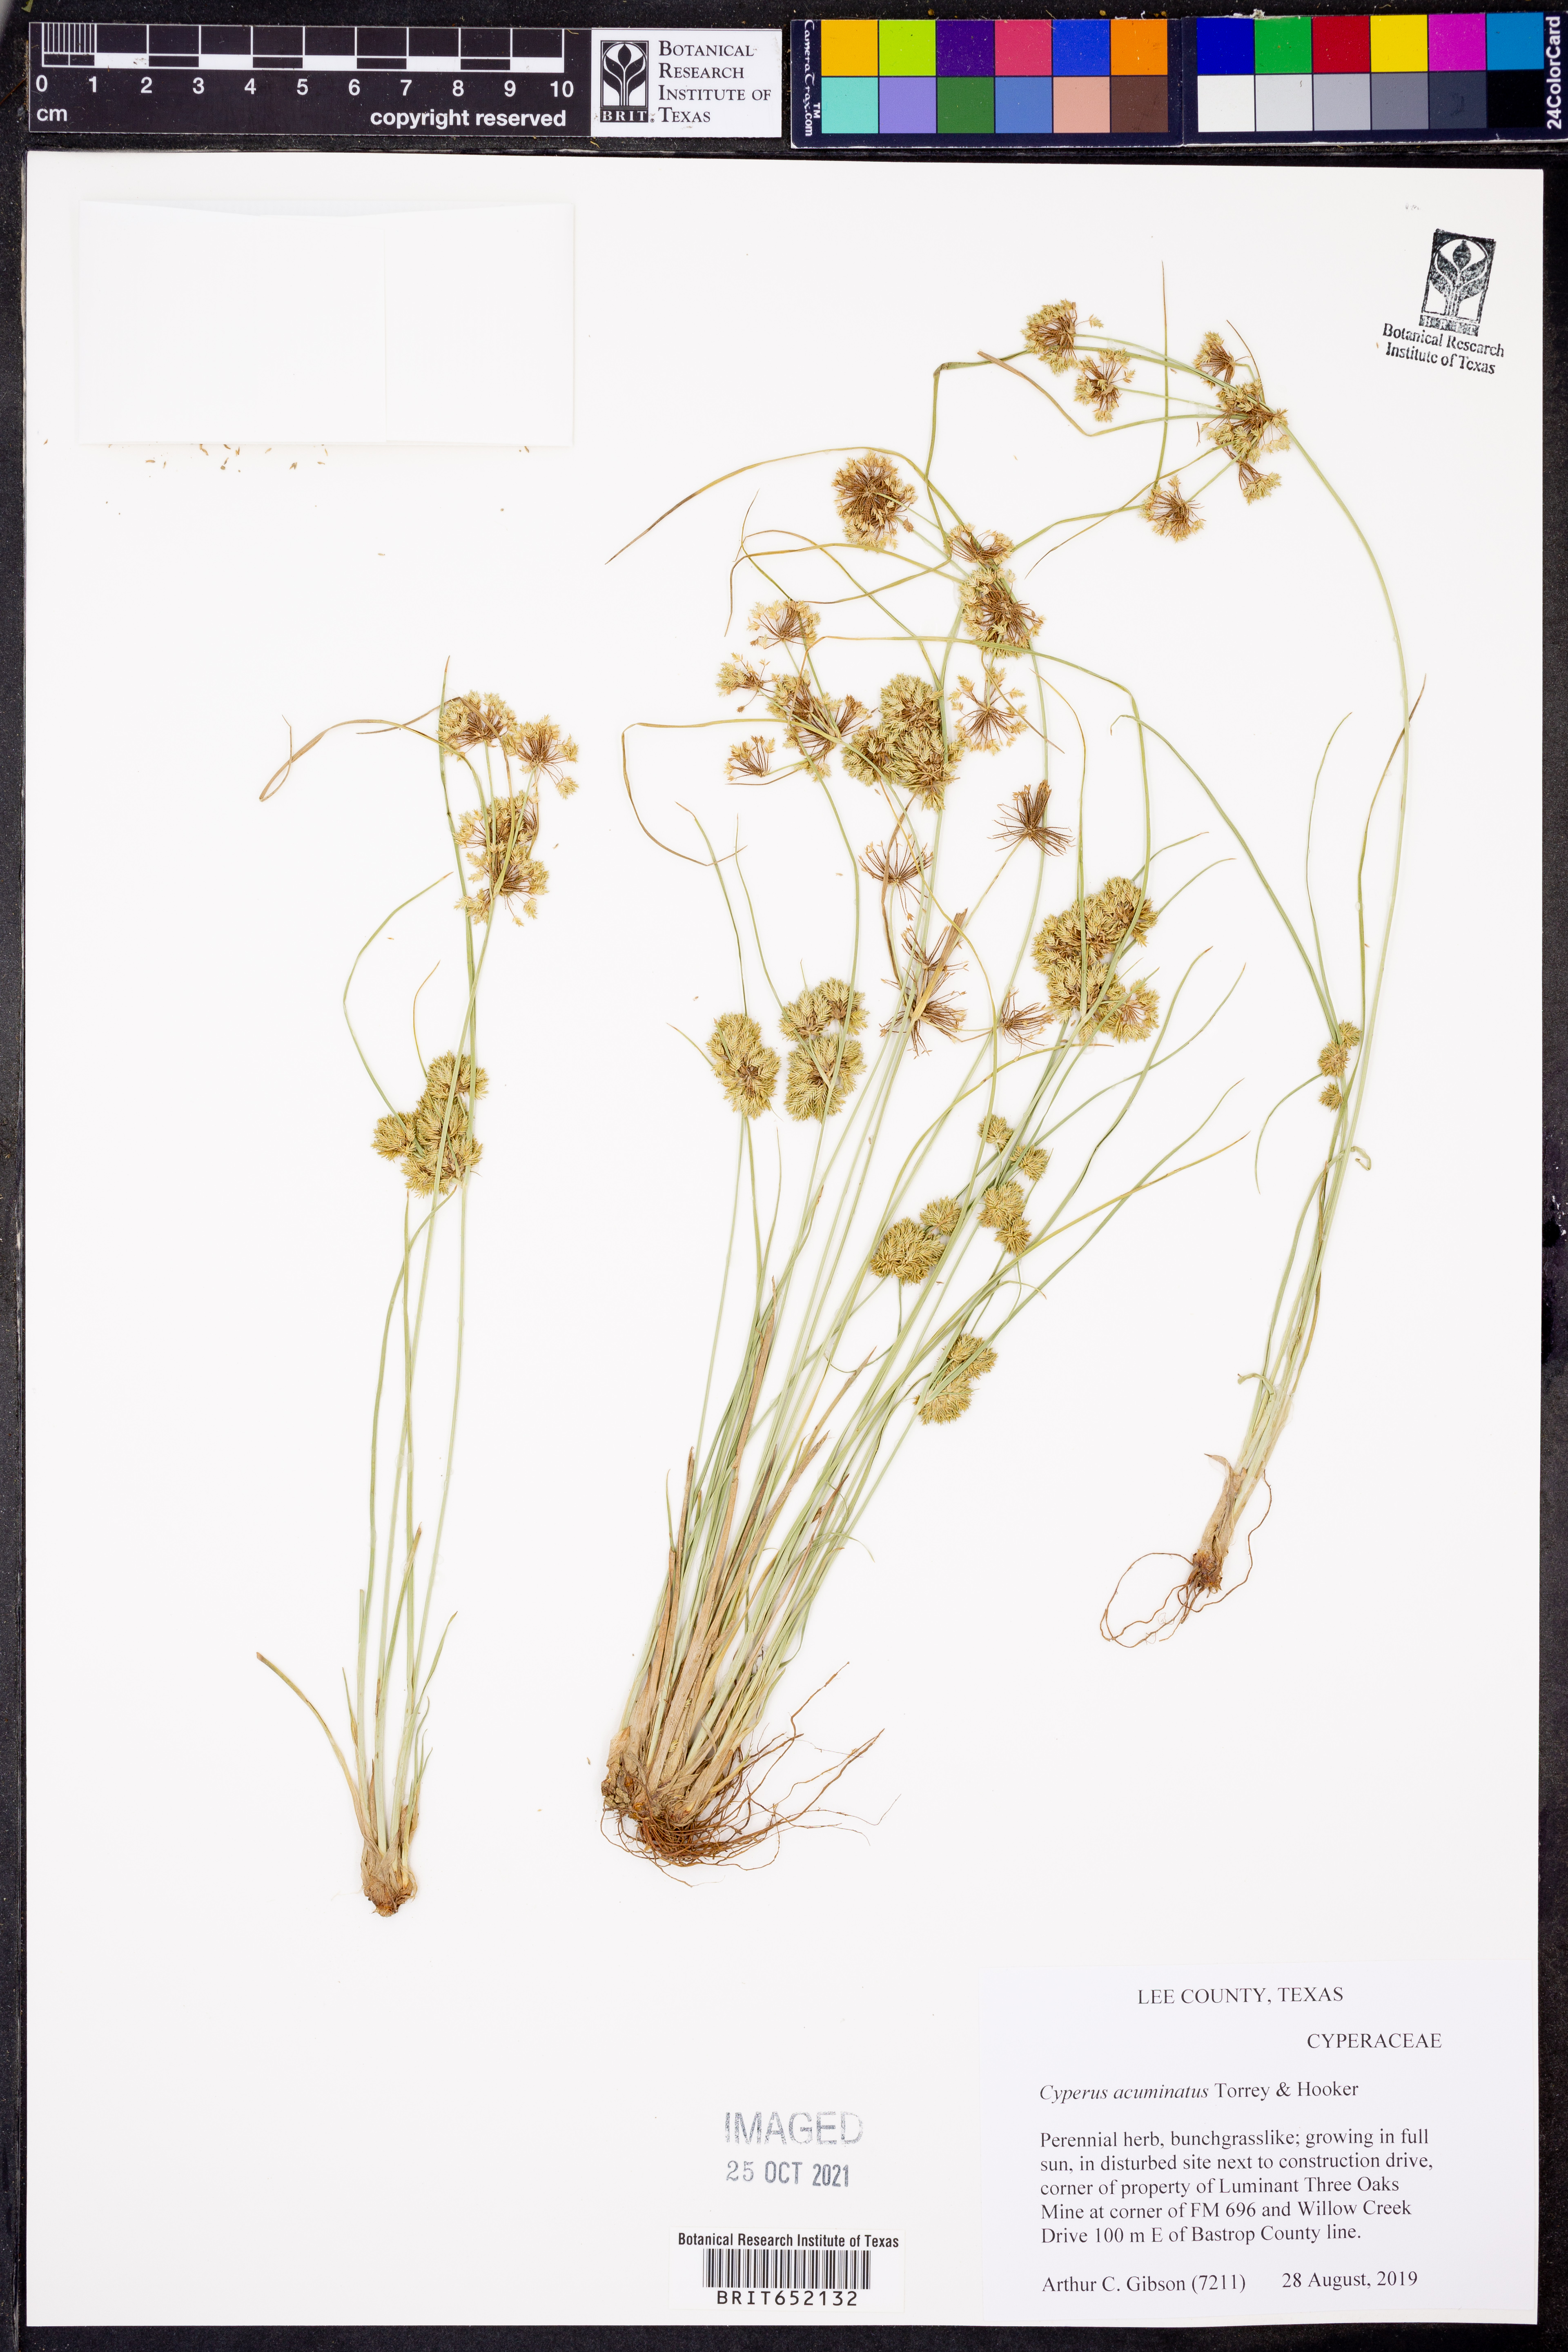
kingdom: Plantae
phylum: Tracheophyta
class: Liliopsida
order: Poales
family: Cyperaceae
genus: Cyperus
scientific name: Cyperus acuminatus
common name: Short-pointed cyperus
